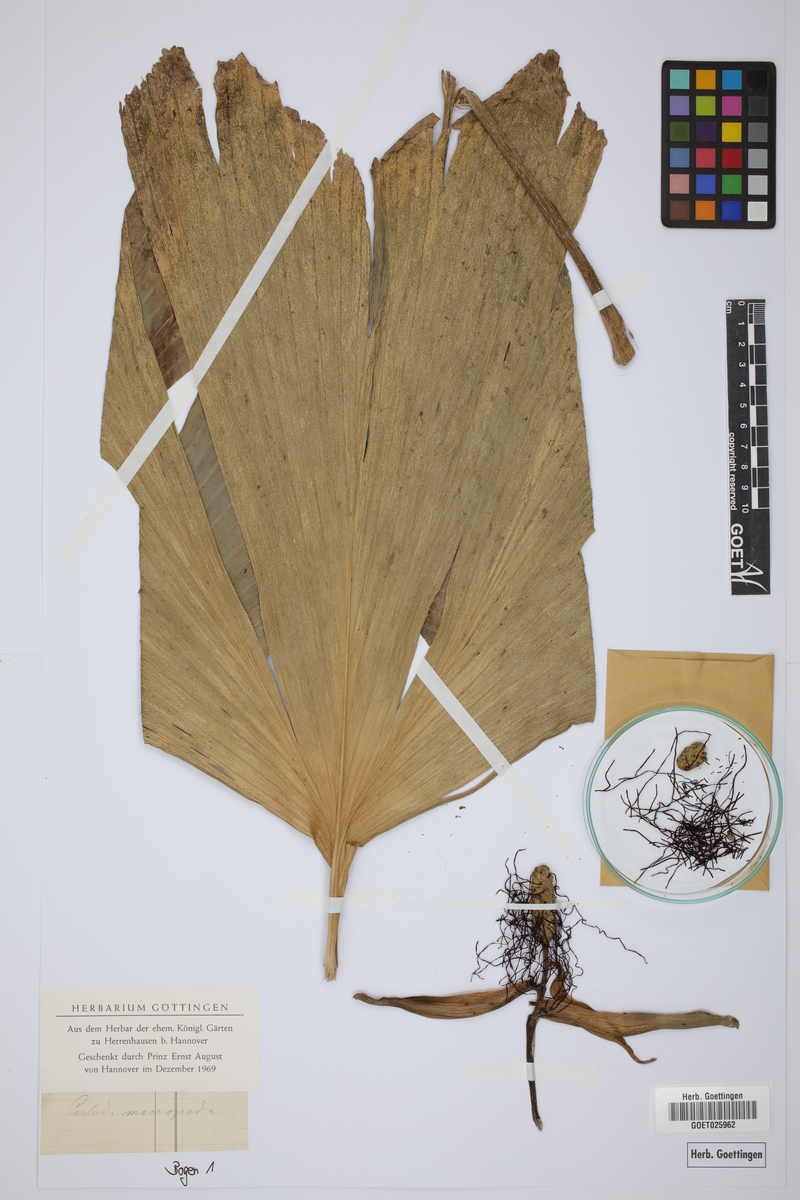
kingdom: Plantae
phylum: Tracheophyta
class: Liliopsida
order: Pandanales
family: Cyclanthaceae
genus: Asplundia
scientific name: Asplundia moritziana
